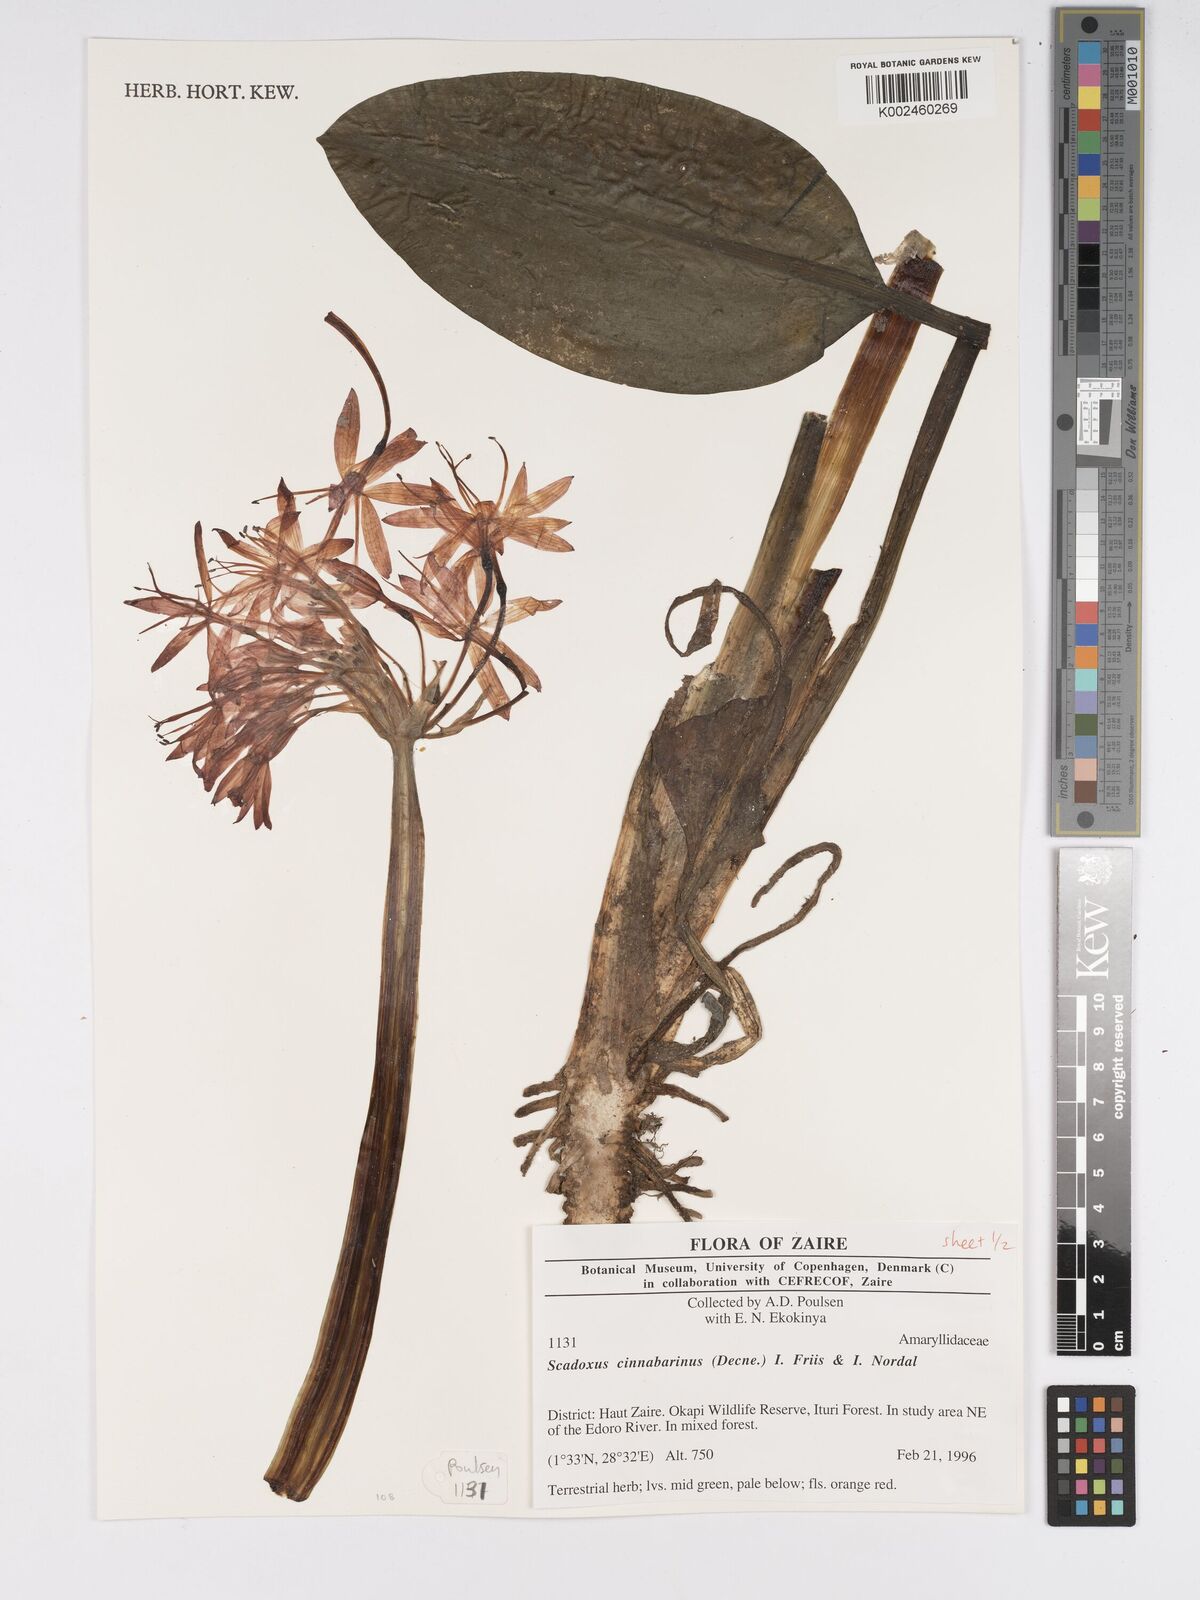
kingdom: Plantae
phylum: Tracheophyta
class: Liliopsida
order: Asparagales
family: Amaryllidaceae
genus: Scadoxus
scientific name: Scadoxus cinnabarinus
